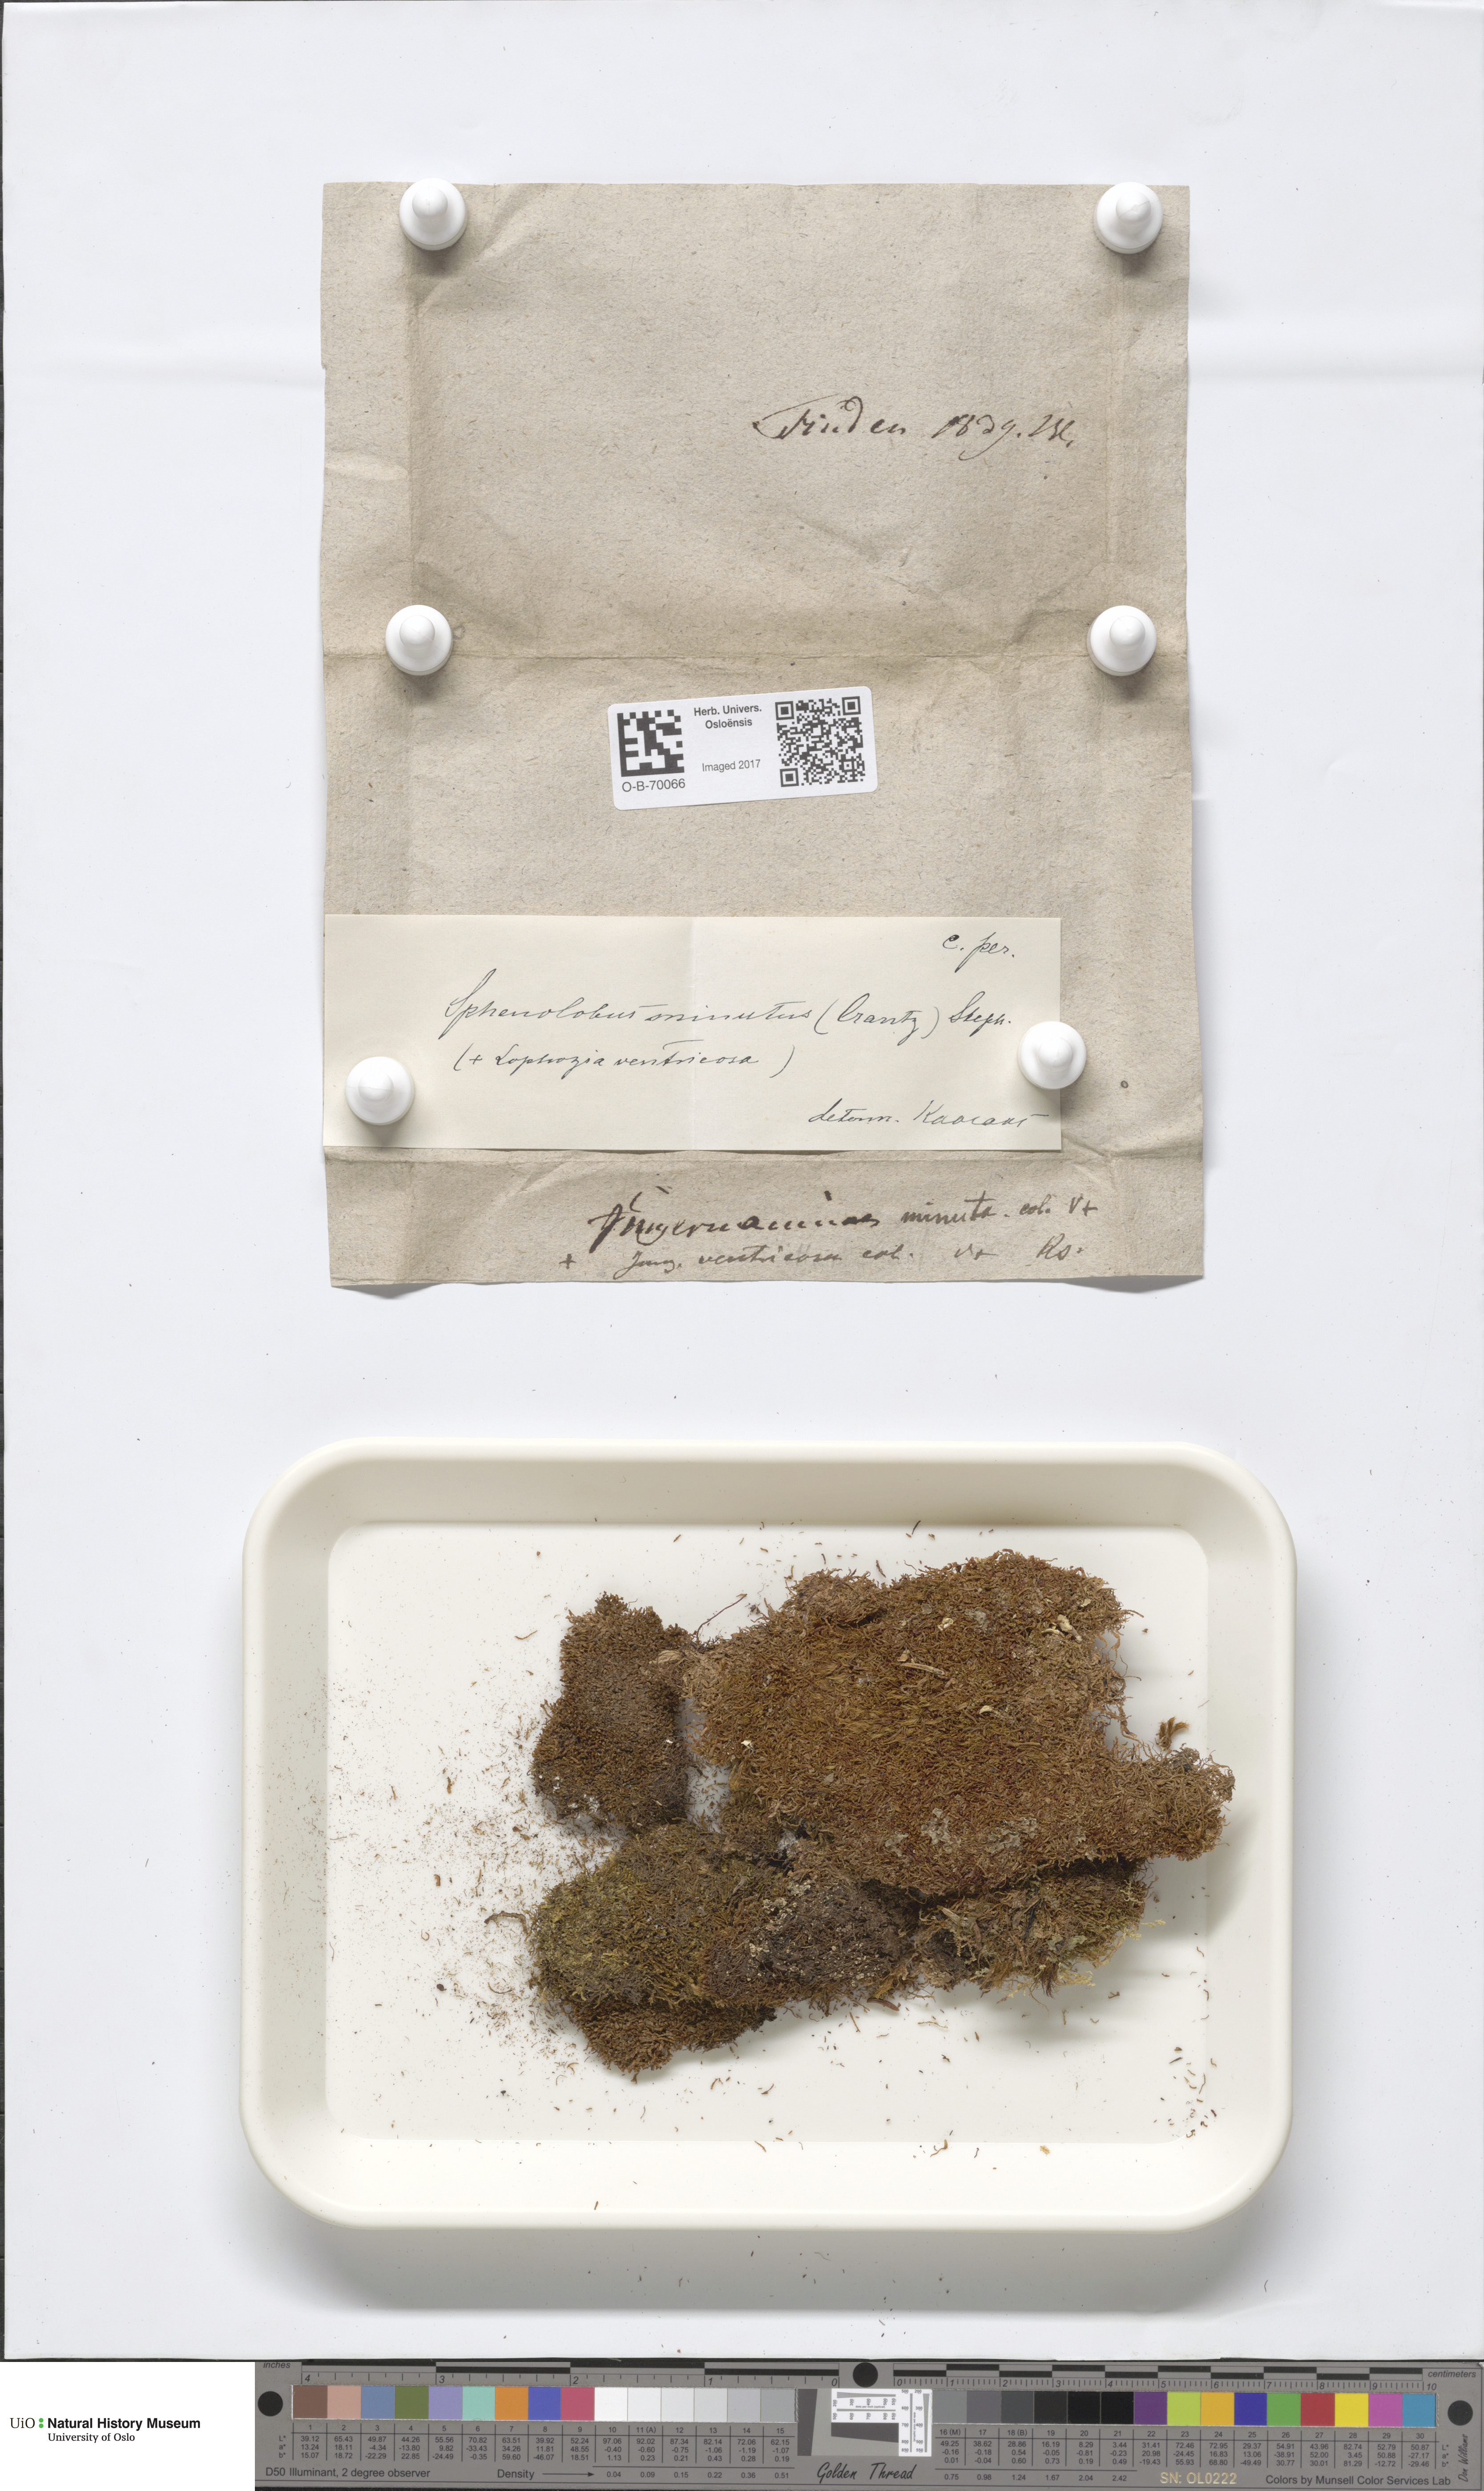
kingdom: Plantae
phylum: Marchantiophyta
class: Jungermanniopsida
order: Jungermanniales
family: Anastrophyllaceae
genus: Sphenolobus
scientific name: Sphenolobus minutus
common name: Comb notchwort
